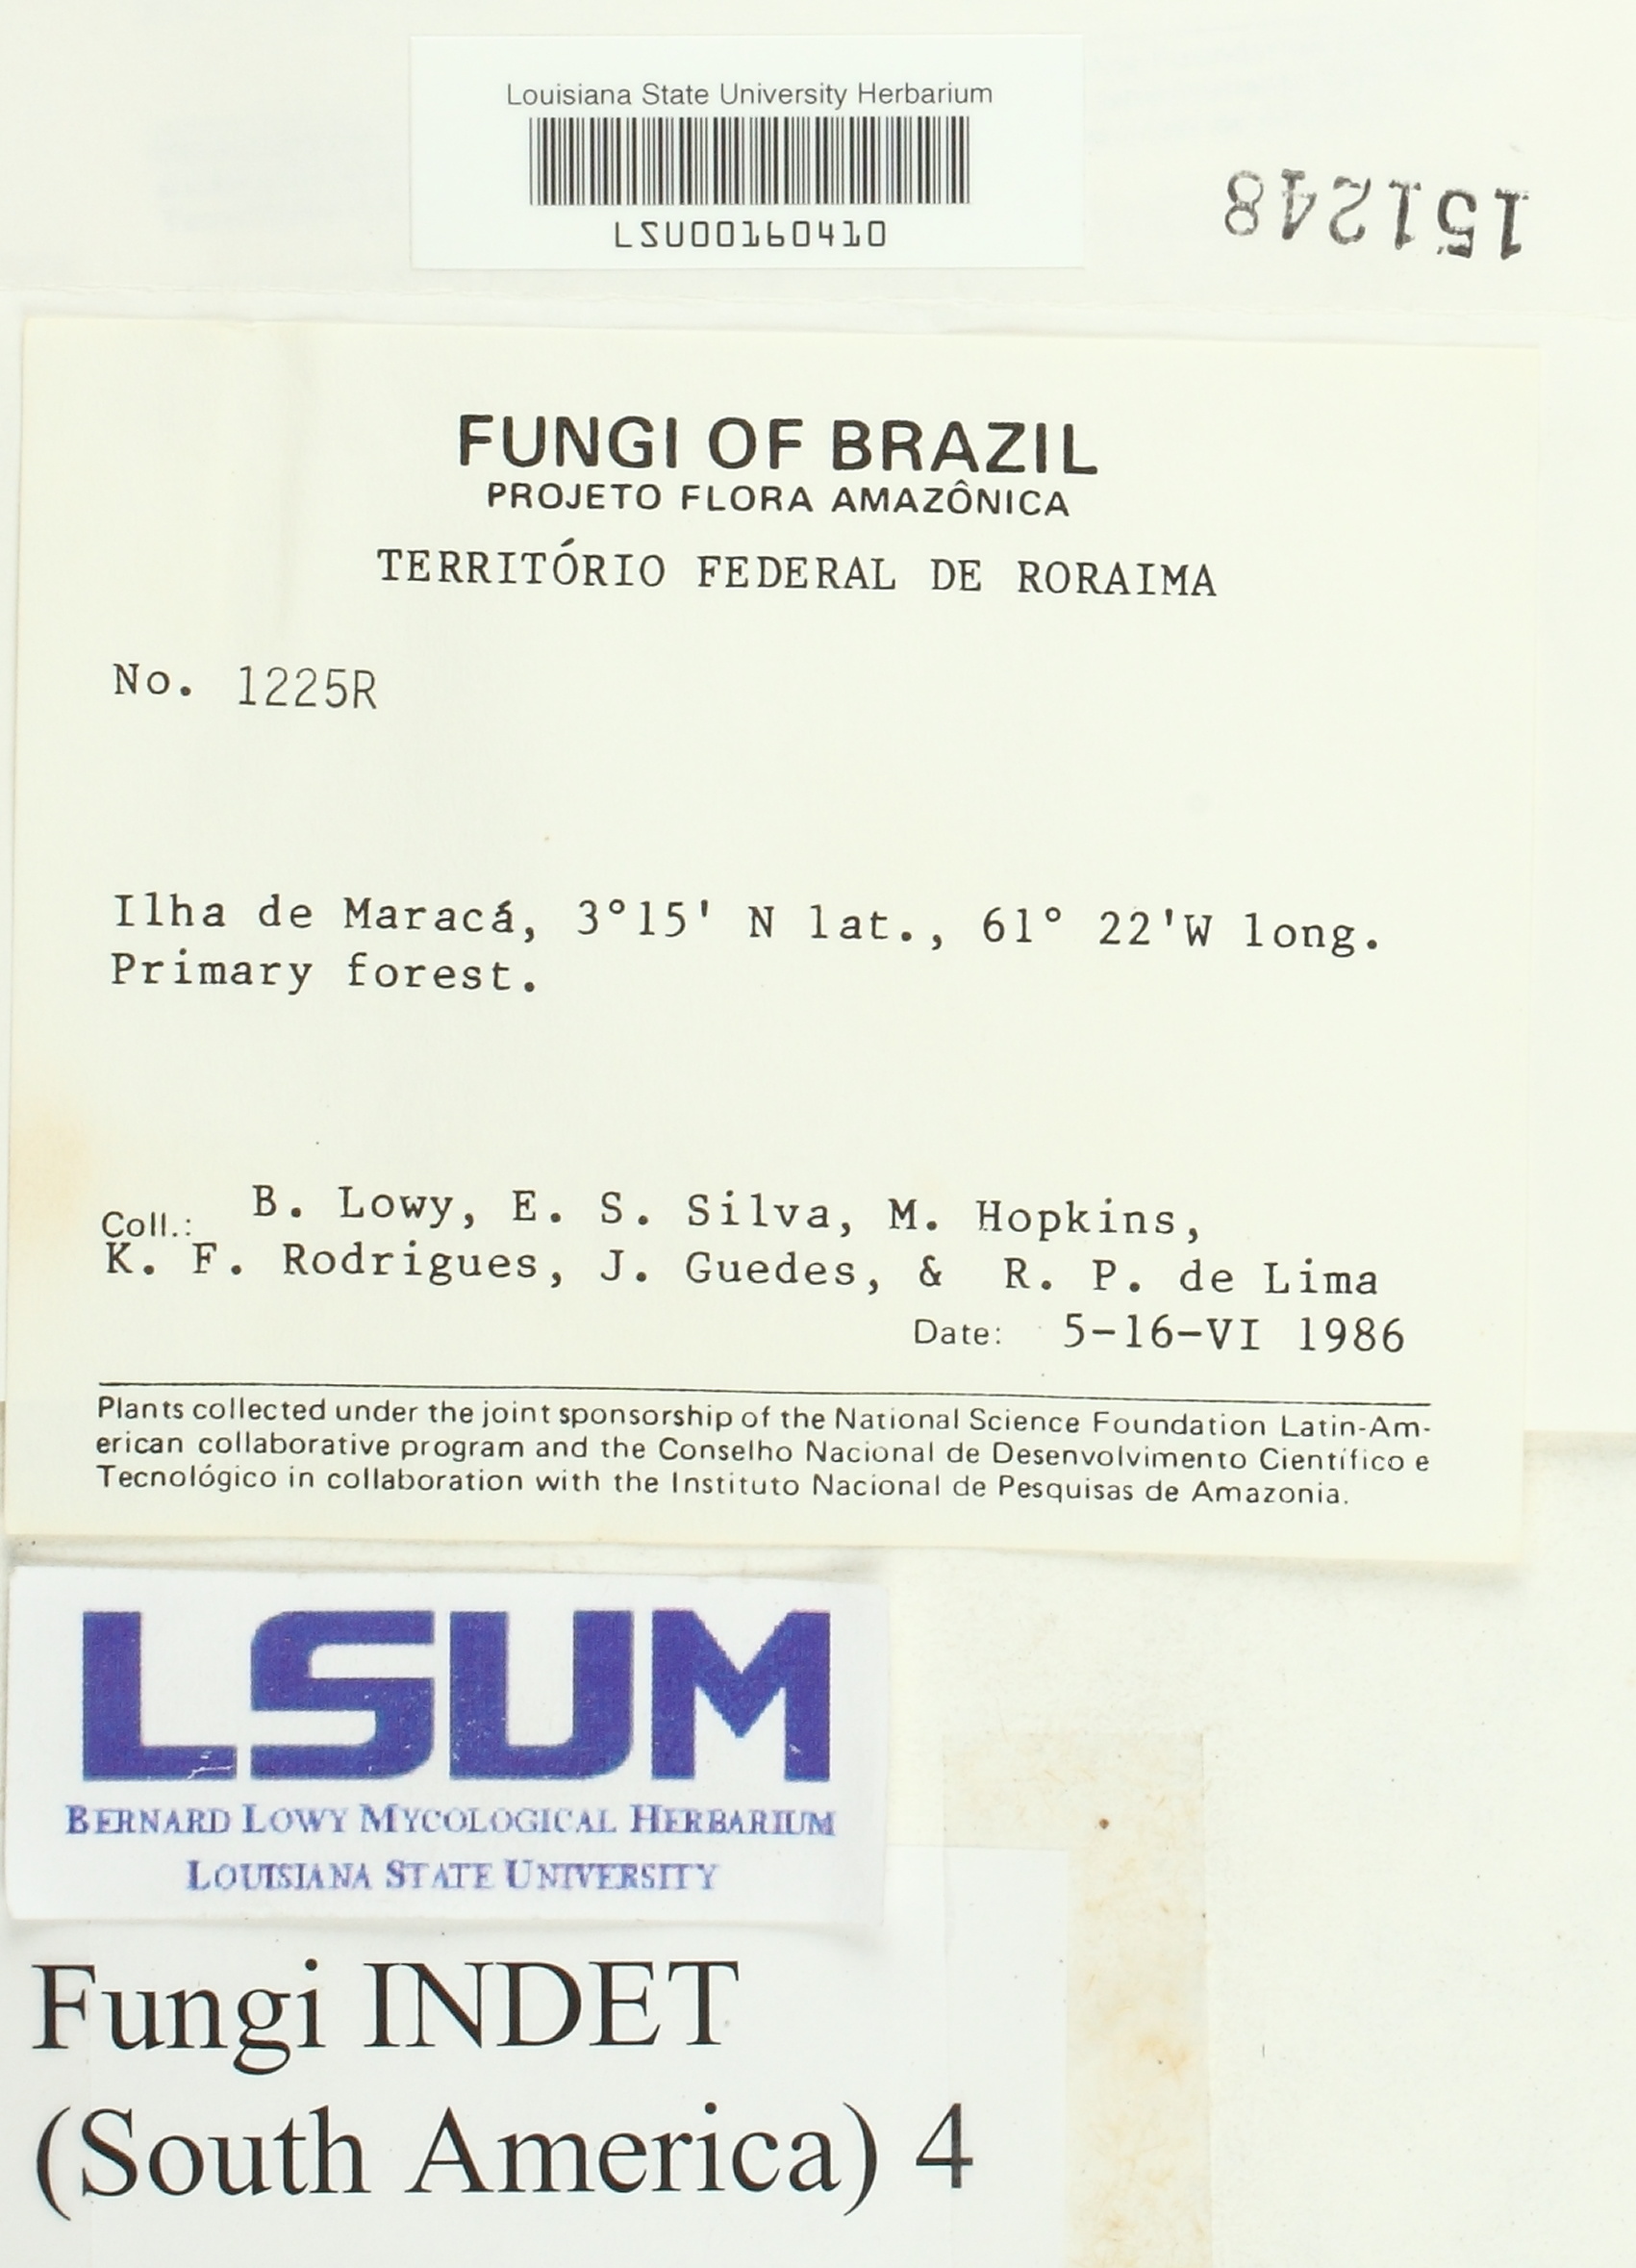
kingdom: Fungi
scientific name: Fungi
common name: Fungi
